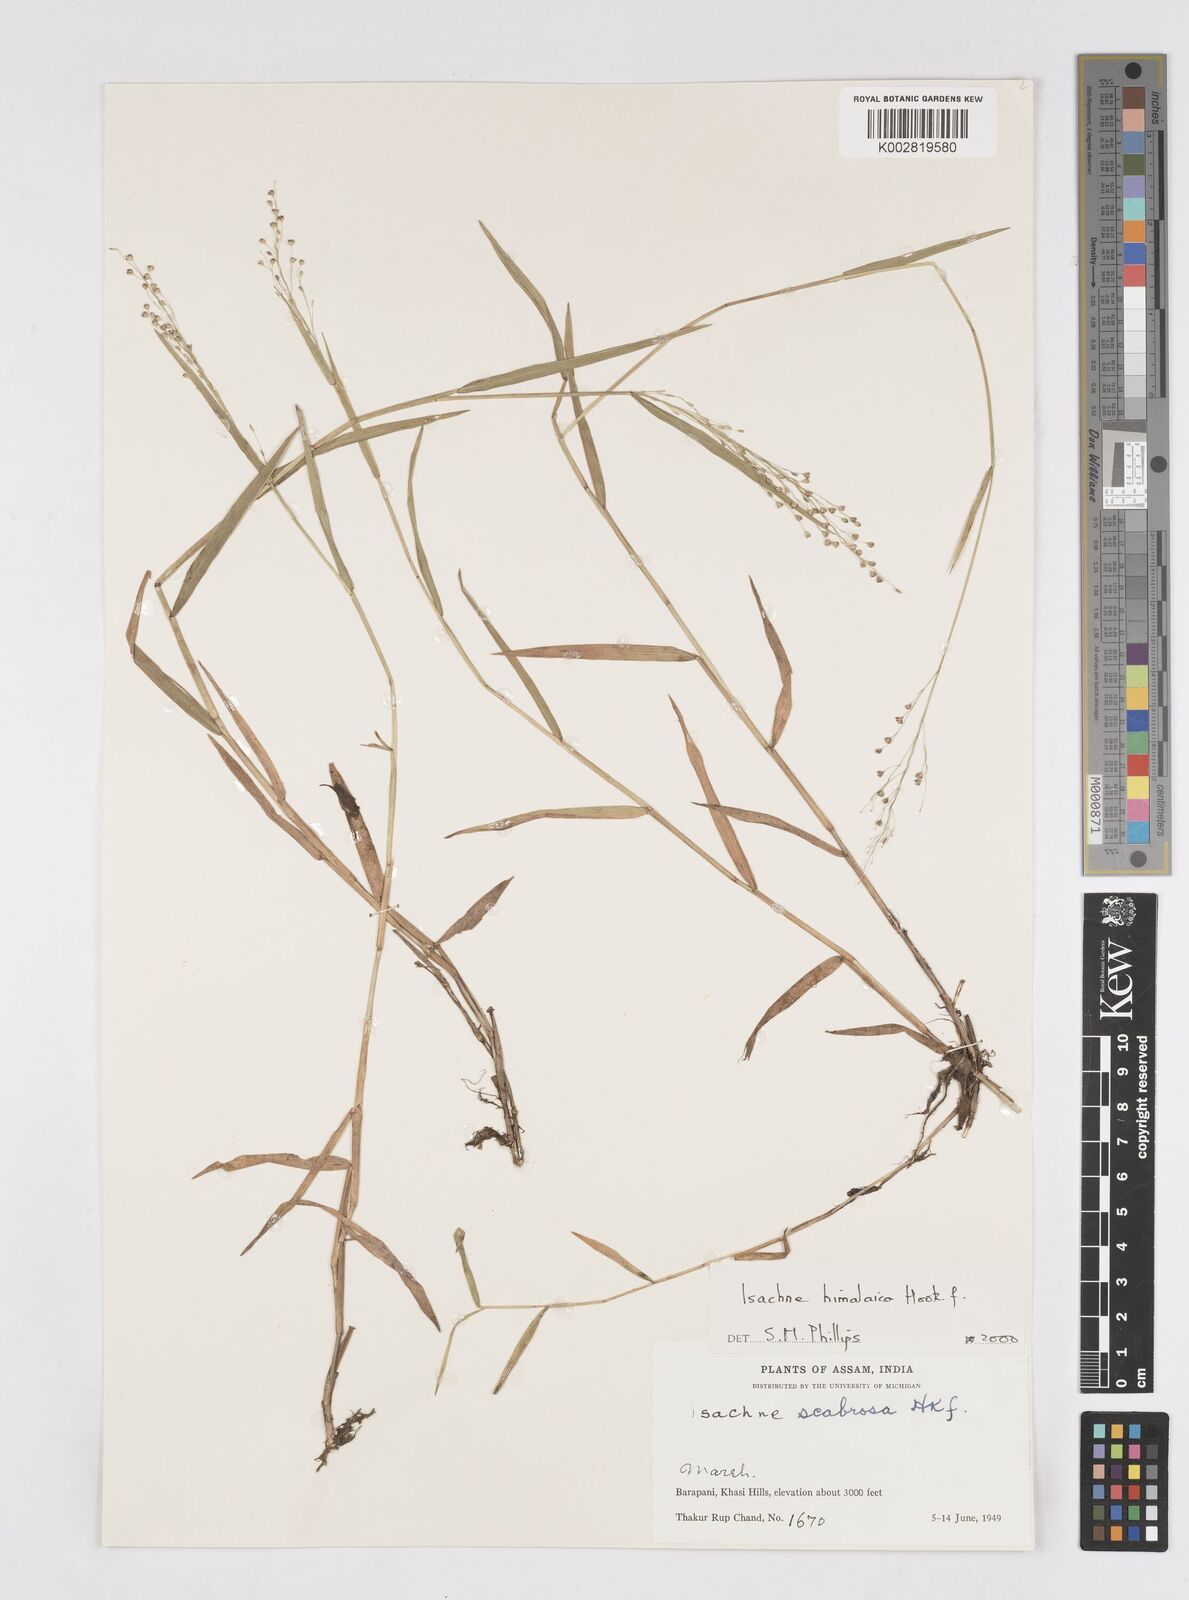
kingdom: Plantae
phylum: Tracheophyta
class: Liliopsida
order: Poales
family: Poaceae
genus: Isachne
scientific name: Isachne himalaica
